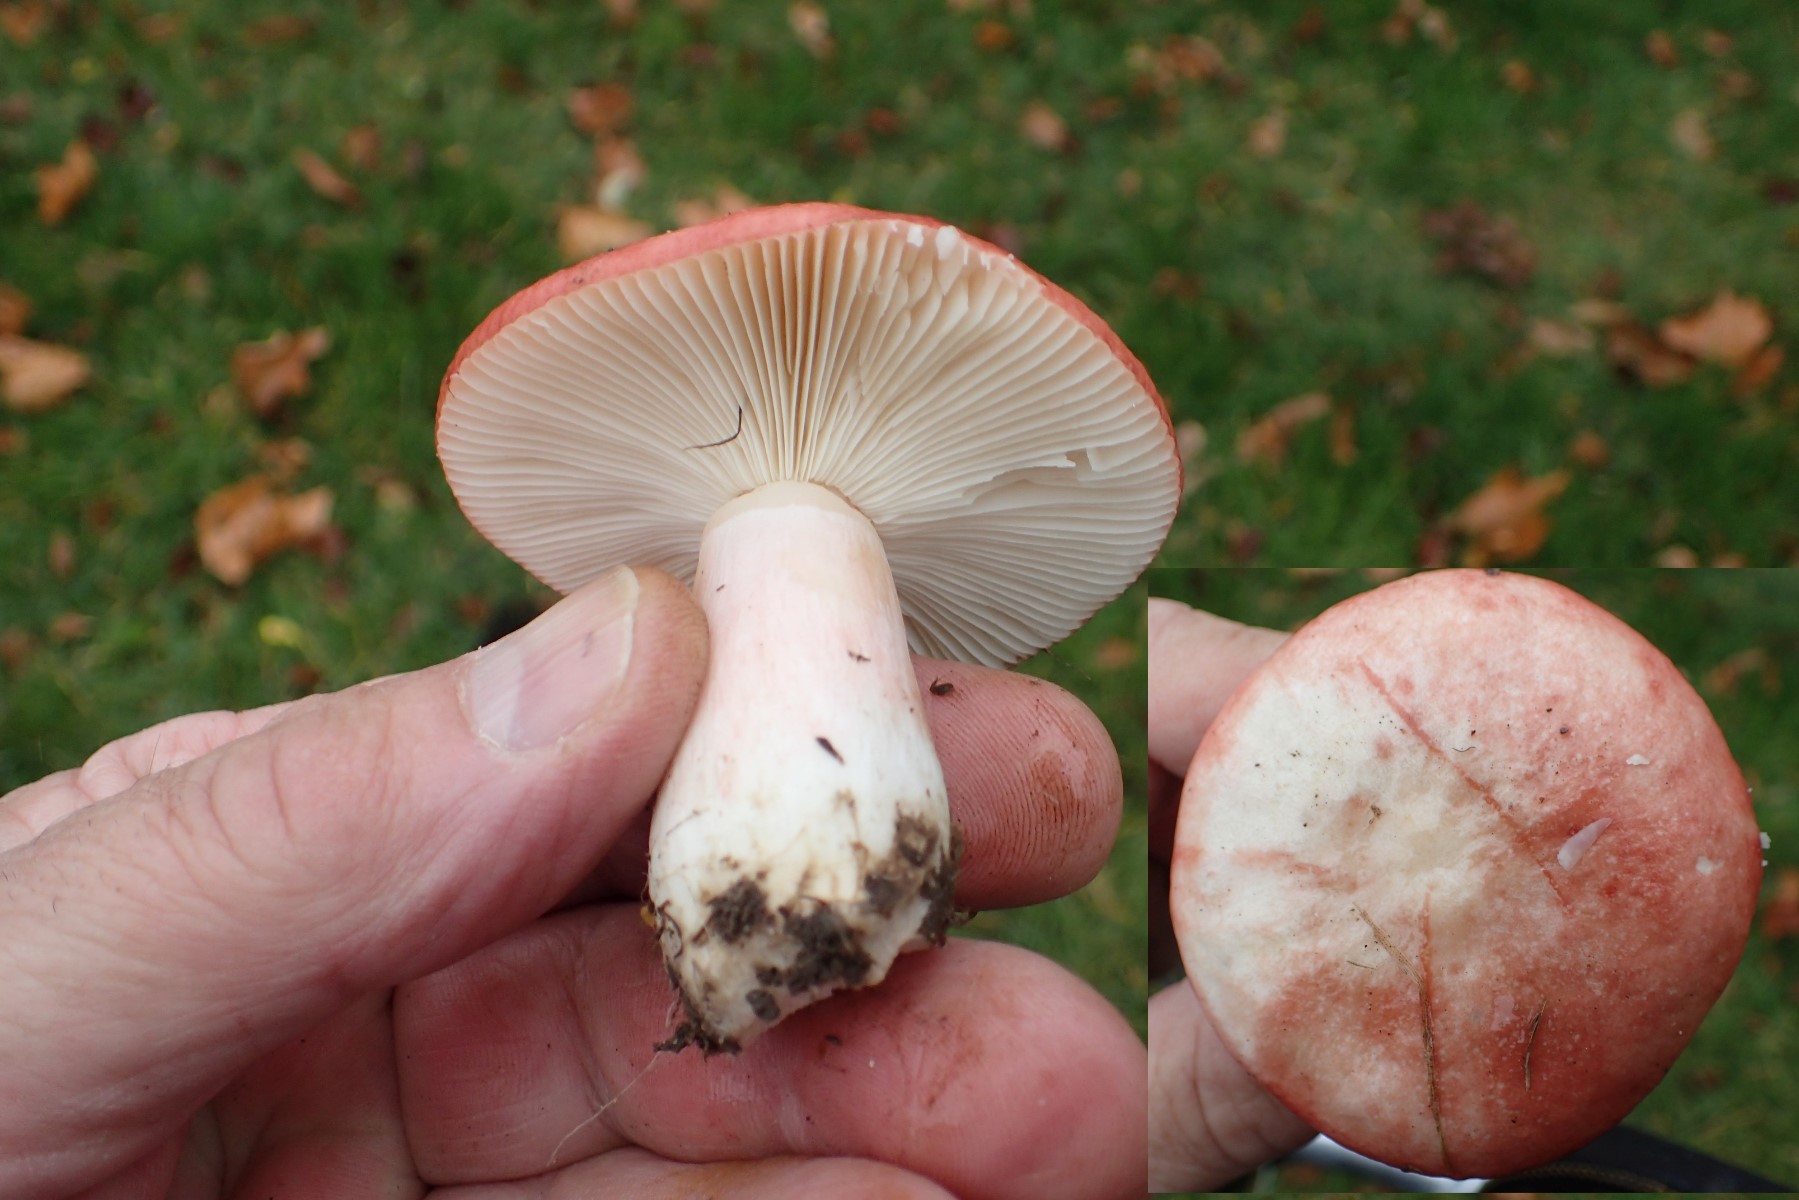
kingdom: Fungi
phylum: Basidiomycota
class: Agaricomycetes
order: Russulales
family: Russulaceae
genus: Russula
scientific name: Russula sanguinea
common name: blodrød skørhat
